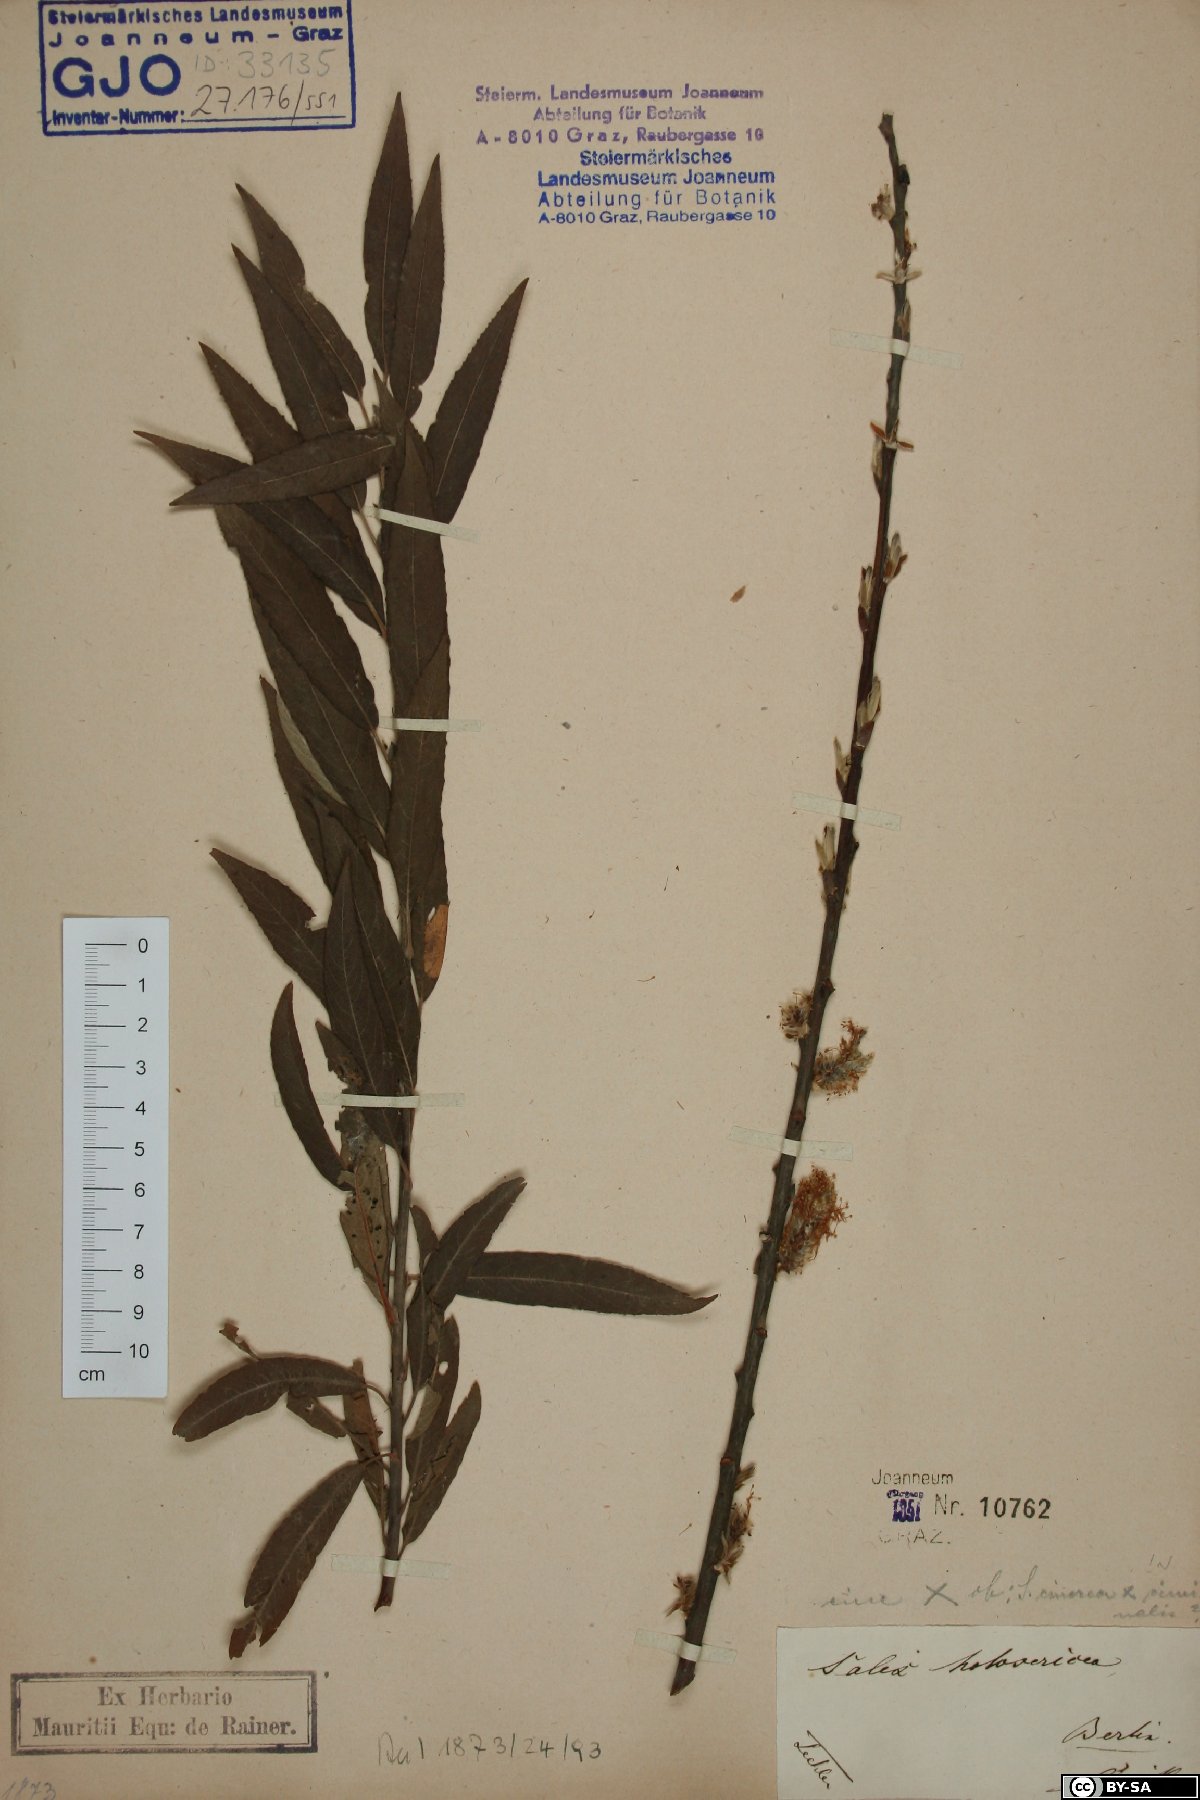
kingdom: Plantae
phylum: Tracheophyta
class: Magnoliopsida
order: Malpighiales
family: Salicaceae
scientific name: Salicaceae
